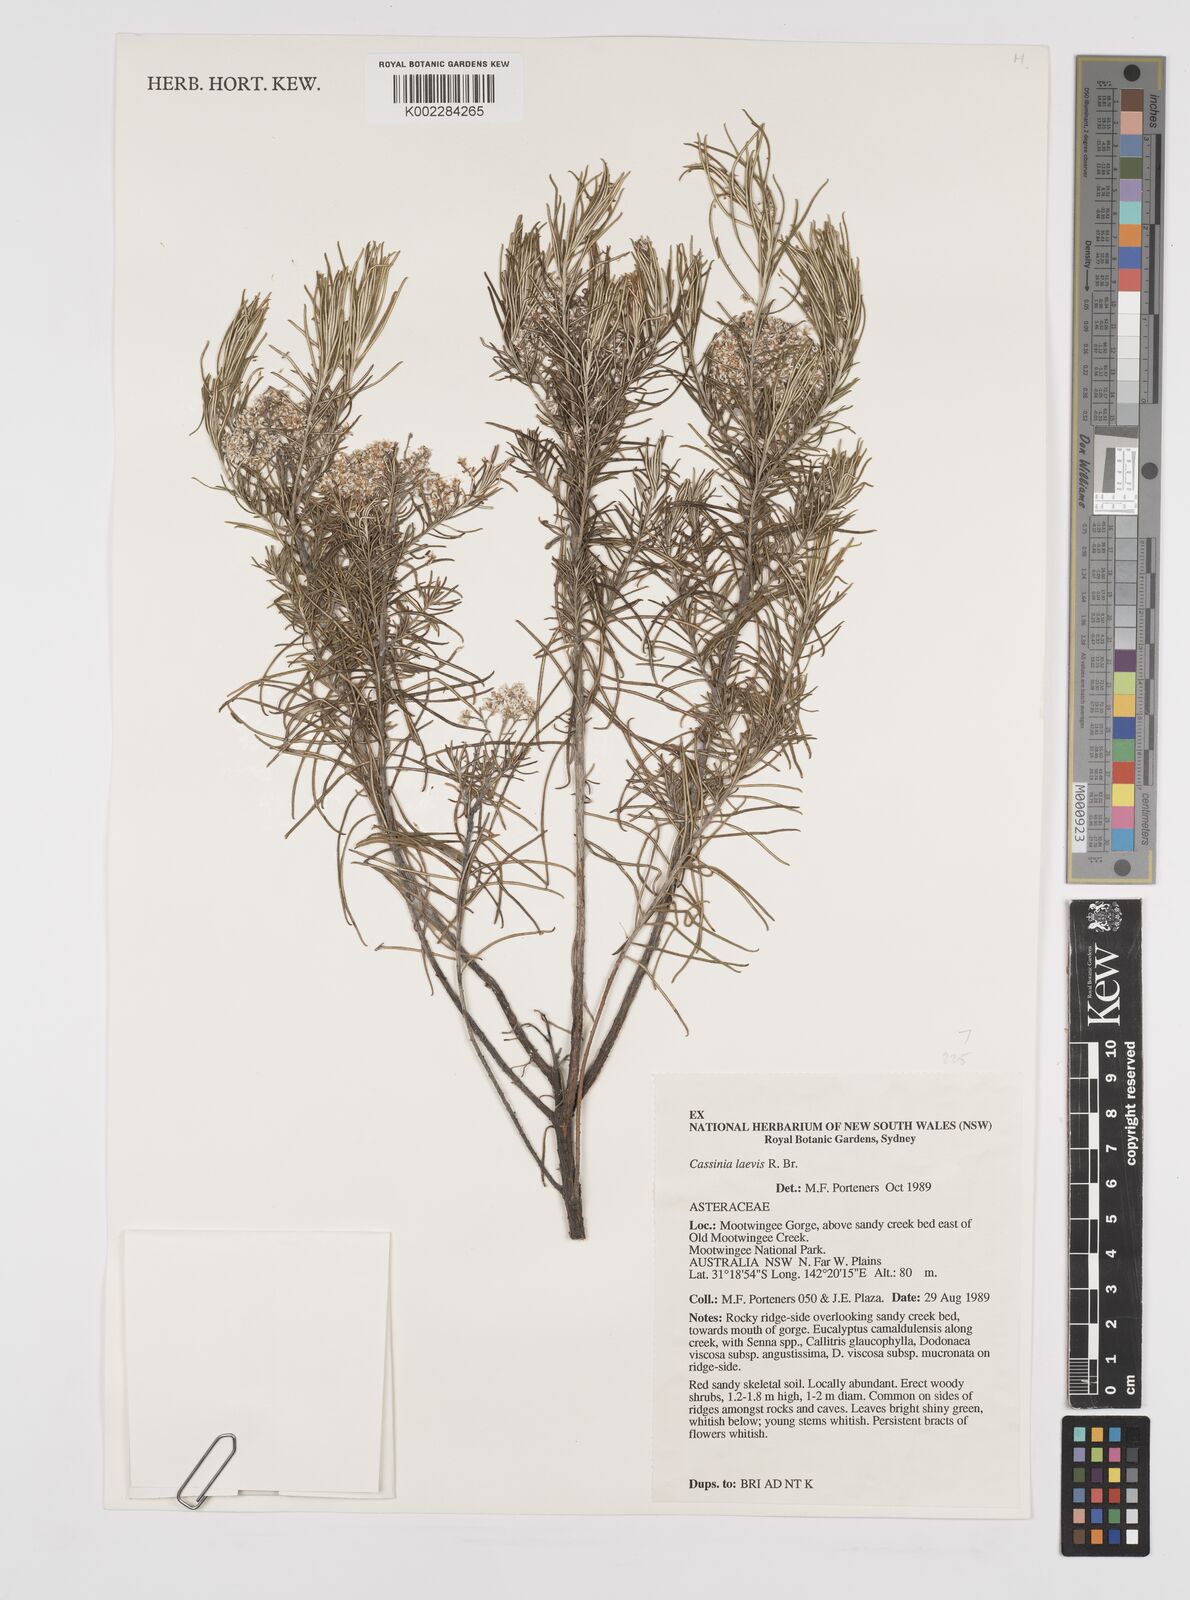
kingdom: Plantae
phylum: Tracheophyta
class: Magnoliopsida
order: Asterales
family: Asteraceae
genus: Cassinia
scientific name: Cassinia laevis
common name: Coughbush
